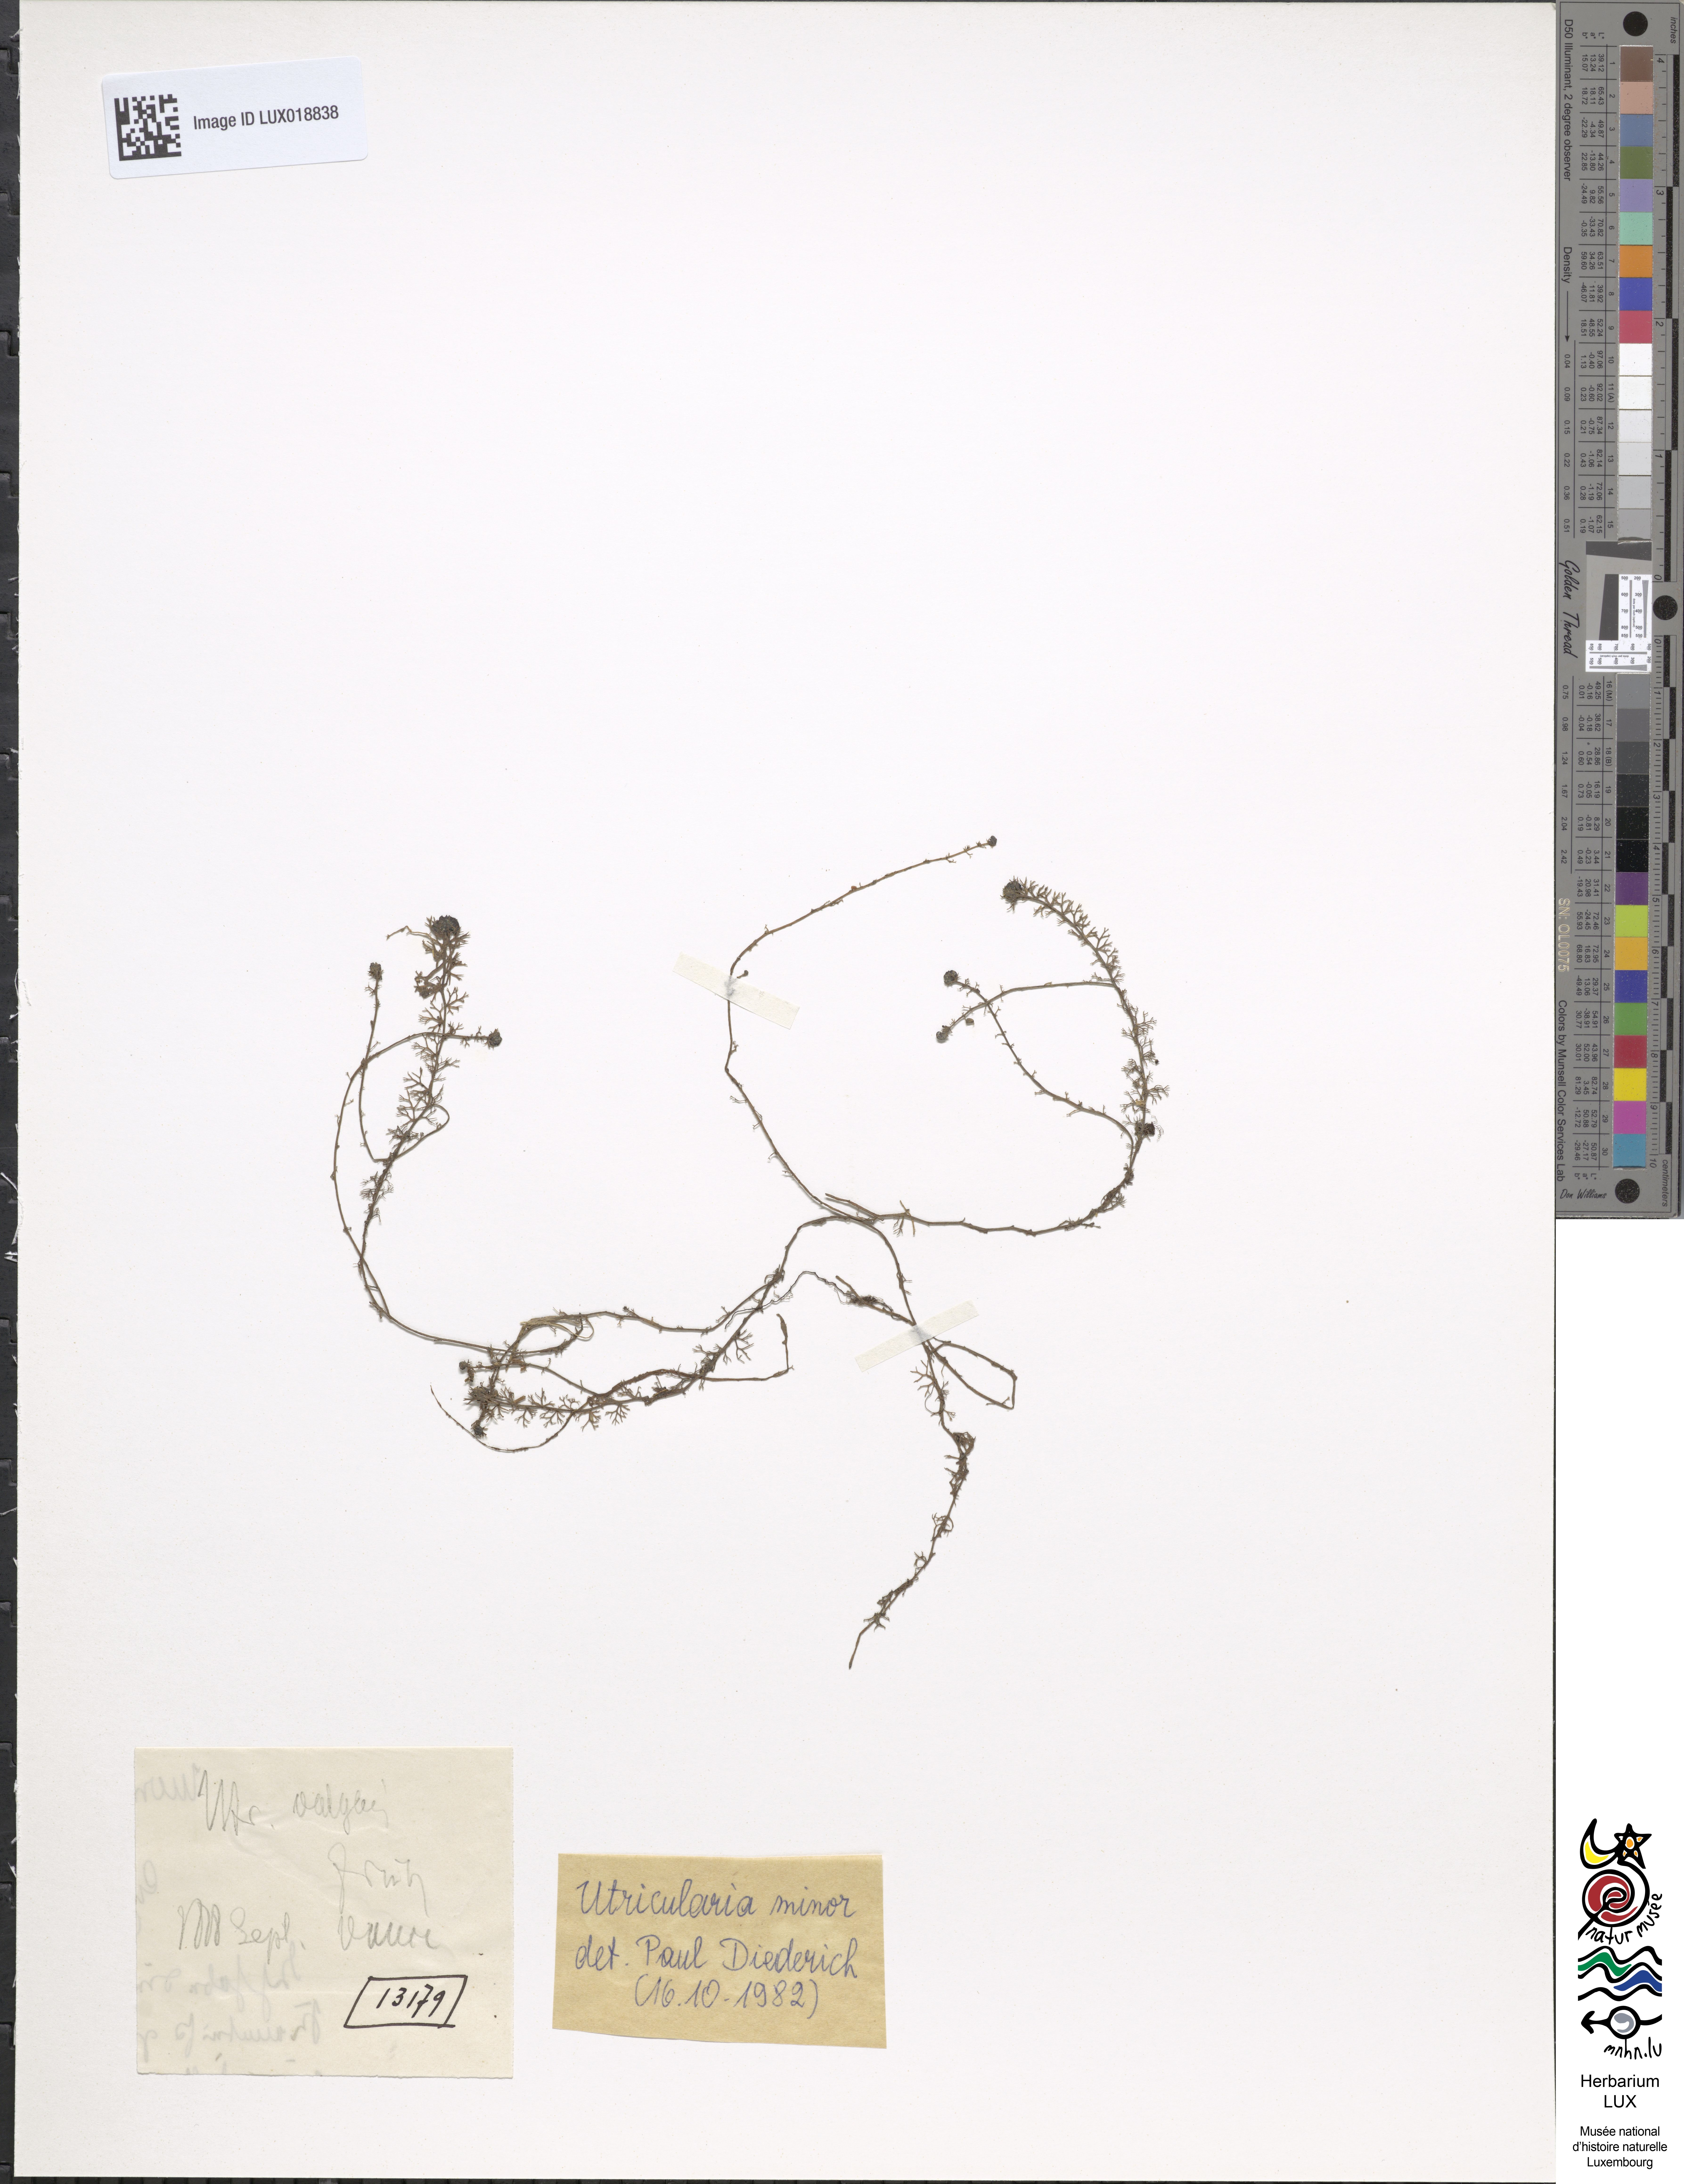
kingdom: Plantae
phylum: Tracheophyta
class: Magnoliopsida
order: Lamiales
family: Lentibulariaceae
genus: Utricularia
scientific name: Utricularia minor
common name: Lesser bladderwort
